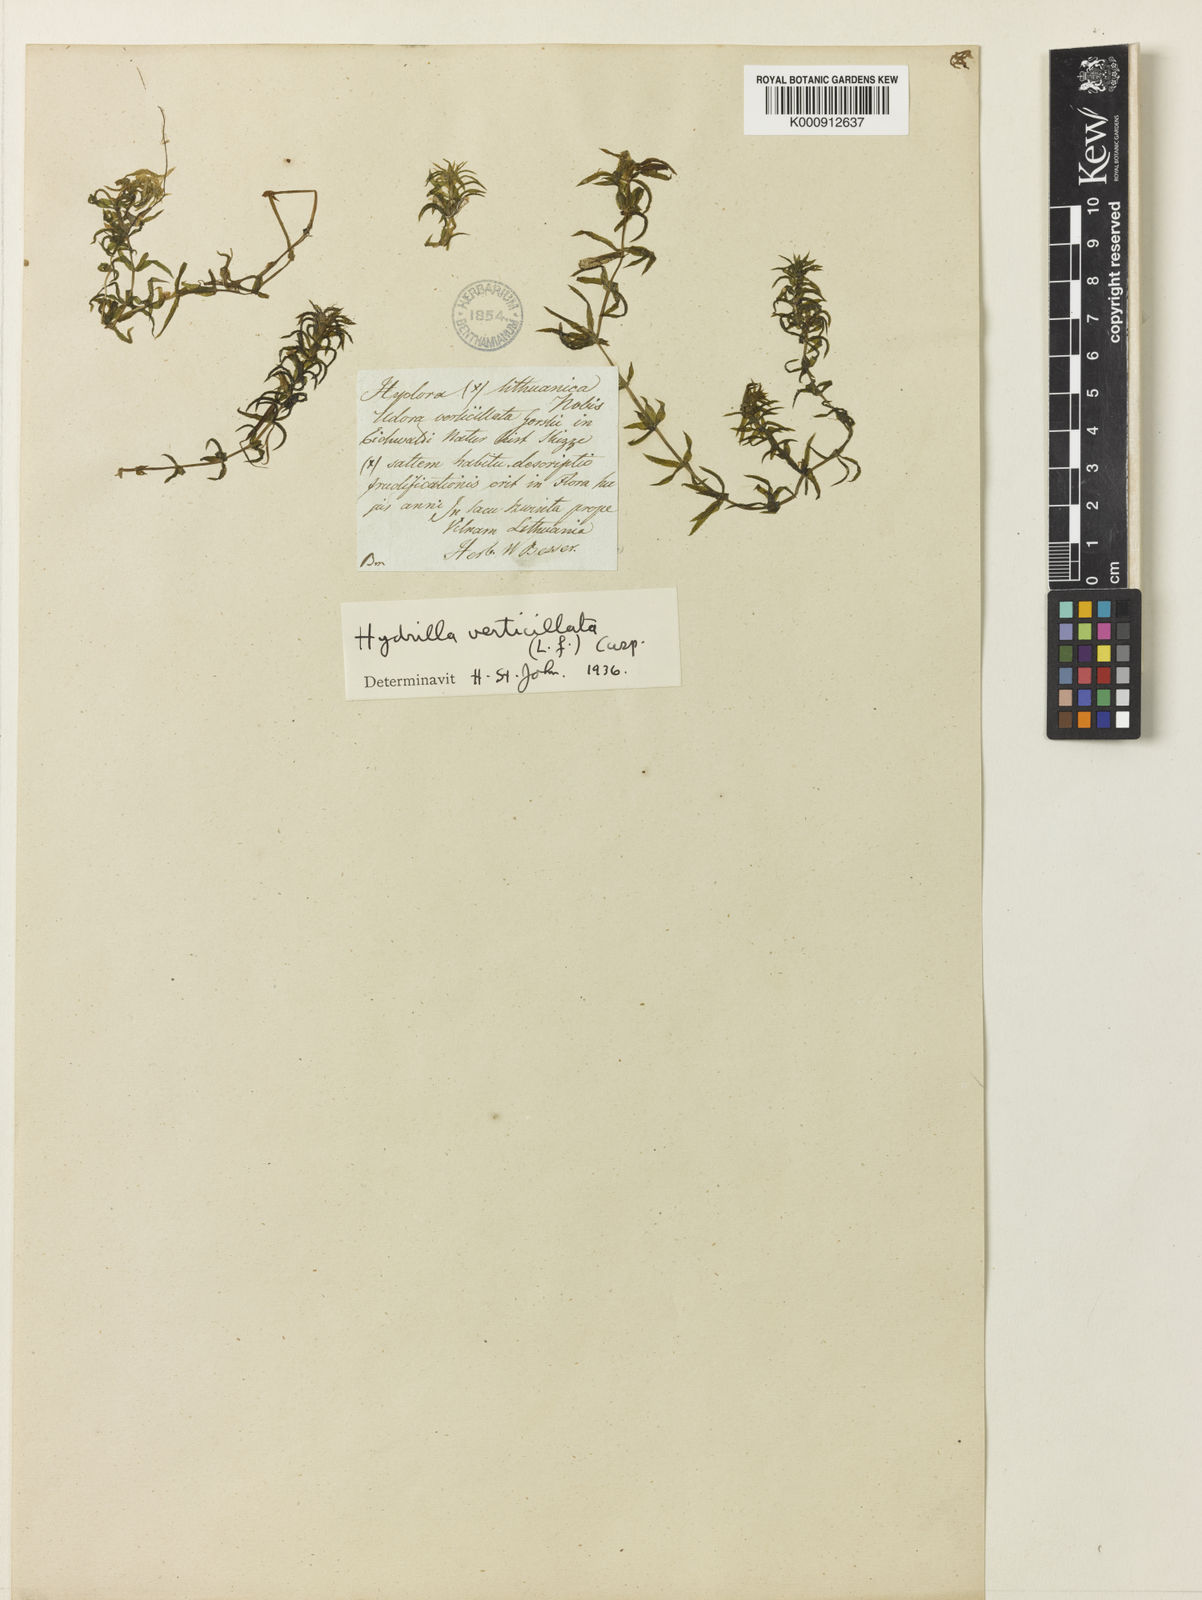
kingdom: Plantae
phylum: Tracheophyta
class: Liliopsida
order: Alismatales
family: Hydrocharitaceae
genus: Hydrilla
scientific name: Hydrilla
